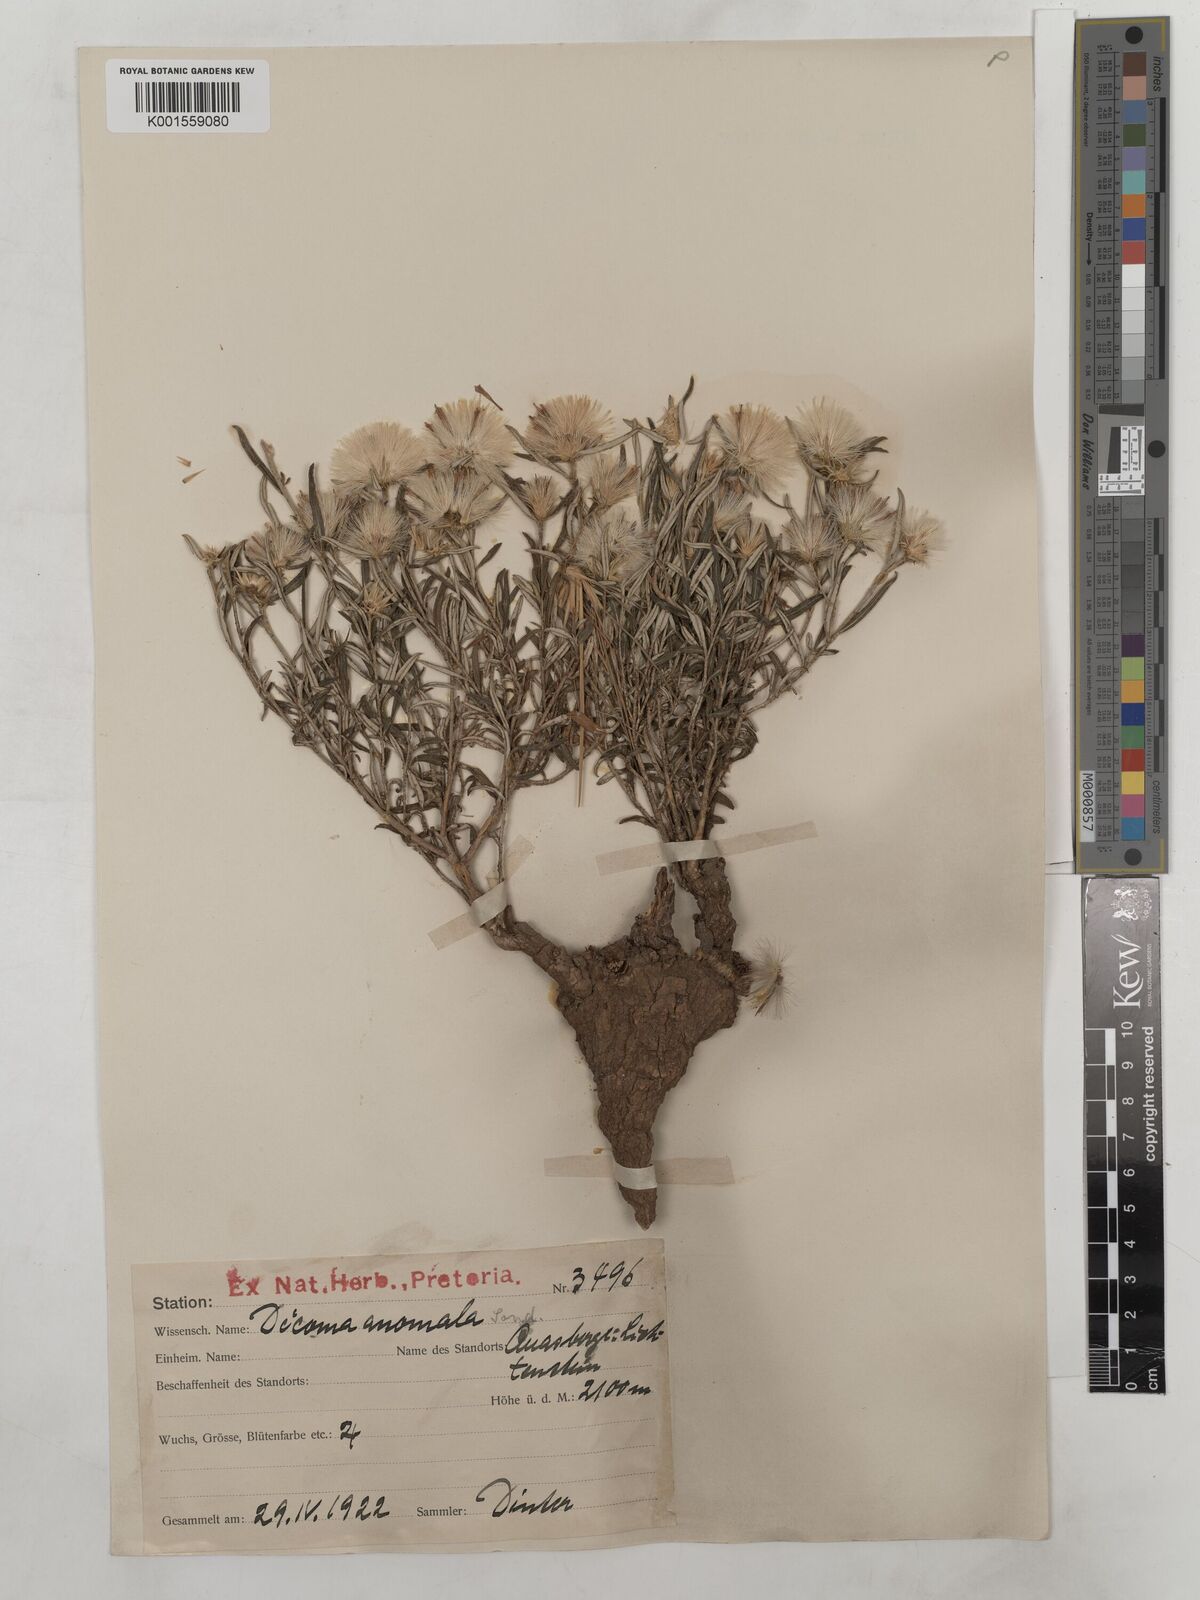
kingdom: Plantae
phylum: Tracheophyta
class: Magnoliopsida
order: Asterales
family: Asteraceae
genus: Dicoma
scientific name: Dicoma anomala
